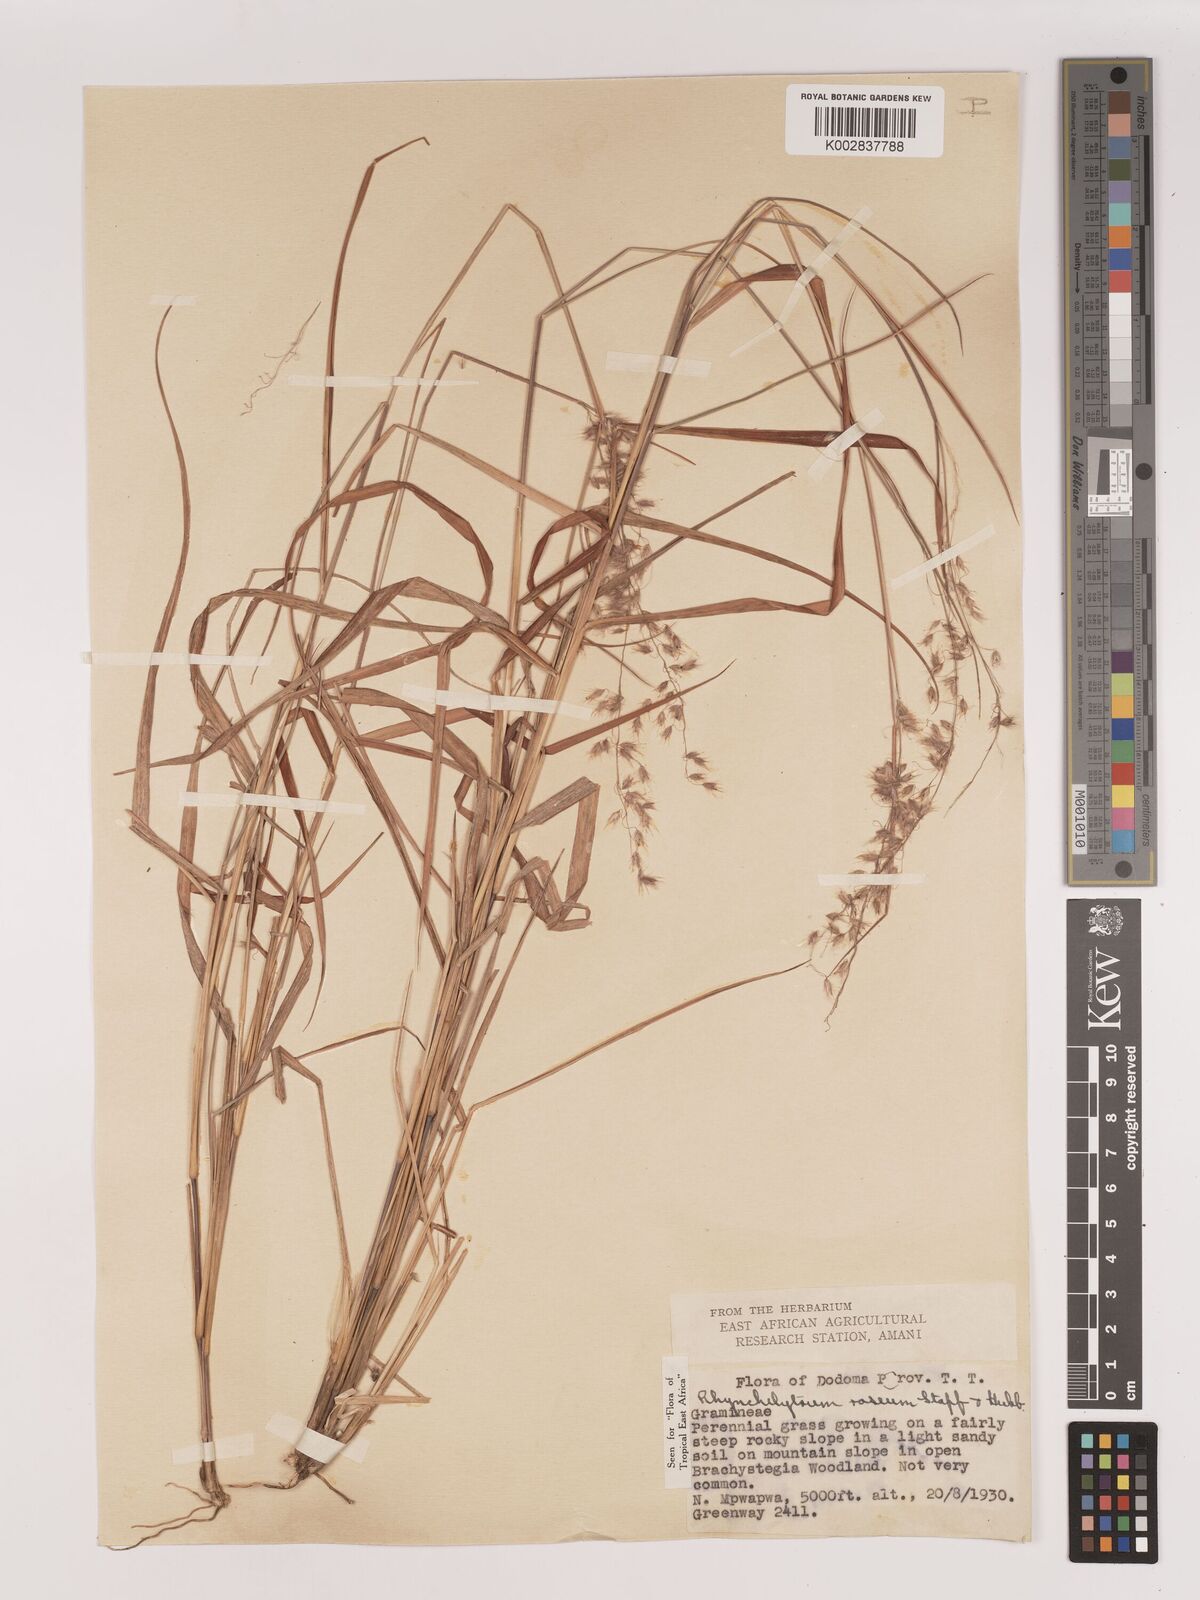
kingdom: Plantae
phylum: Tracheophyta
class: Liliopsida
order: Poales
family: Poaceae
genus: Melinis
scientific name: Melinis repens
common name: Rose natal grass
